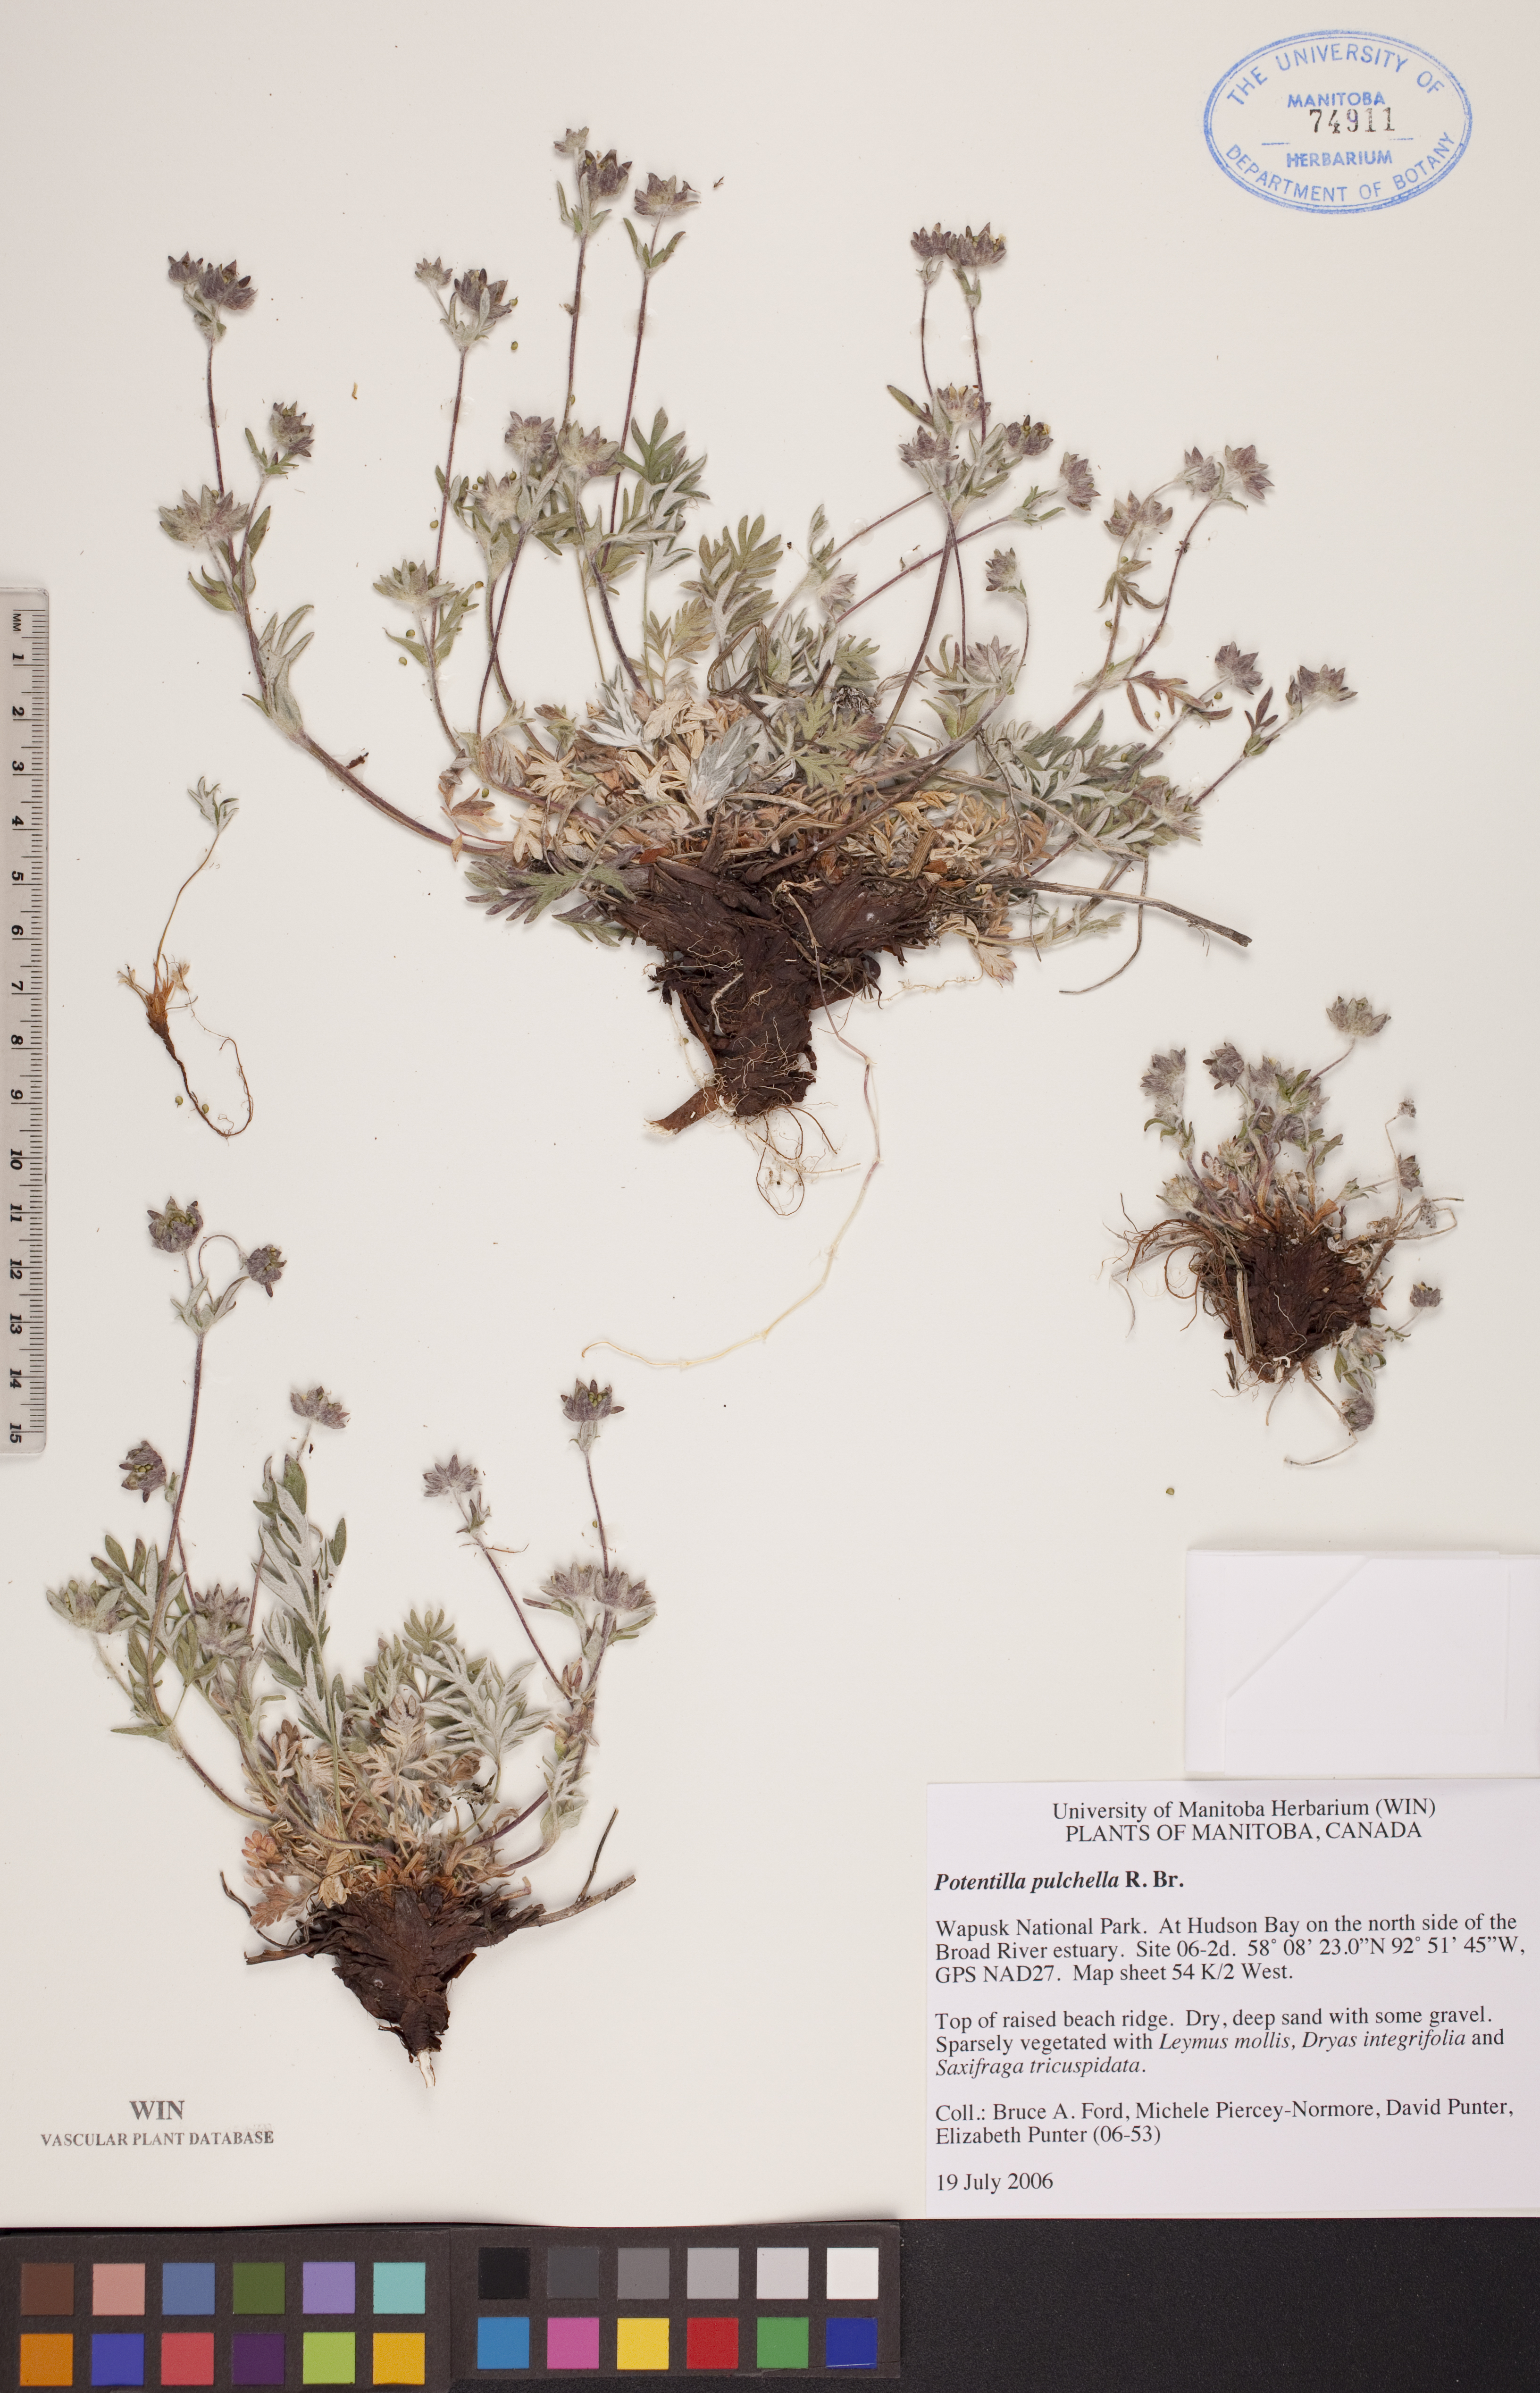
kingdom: Plantae
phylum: Tracheophyta
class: Magnoliopsida
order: Rosales
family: Rosaceae
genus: Potentilla
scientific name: Potentilla pulchella
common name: Pretty cinquefoil
